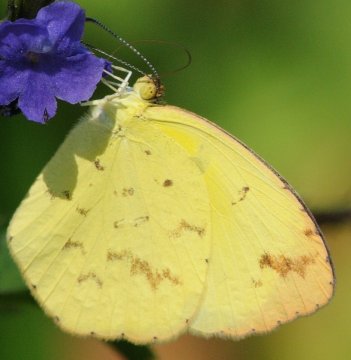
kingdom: Animalia
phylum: Arthropoda
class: Insecta
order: Lepidoptera
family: Pieridae
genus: Eurema
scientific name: Eurema desjardinsii
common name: Angled Grass Yellow
